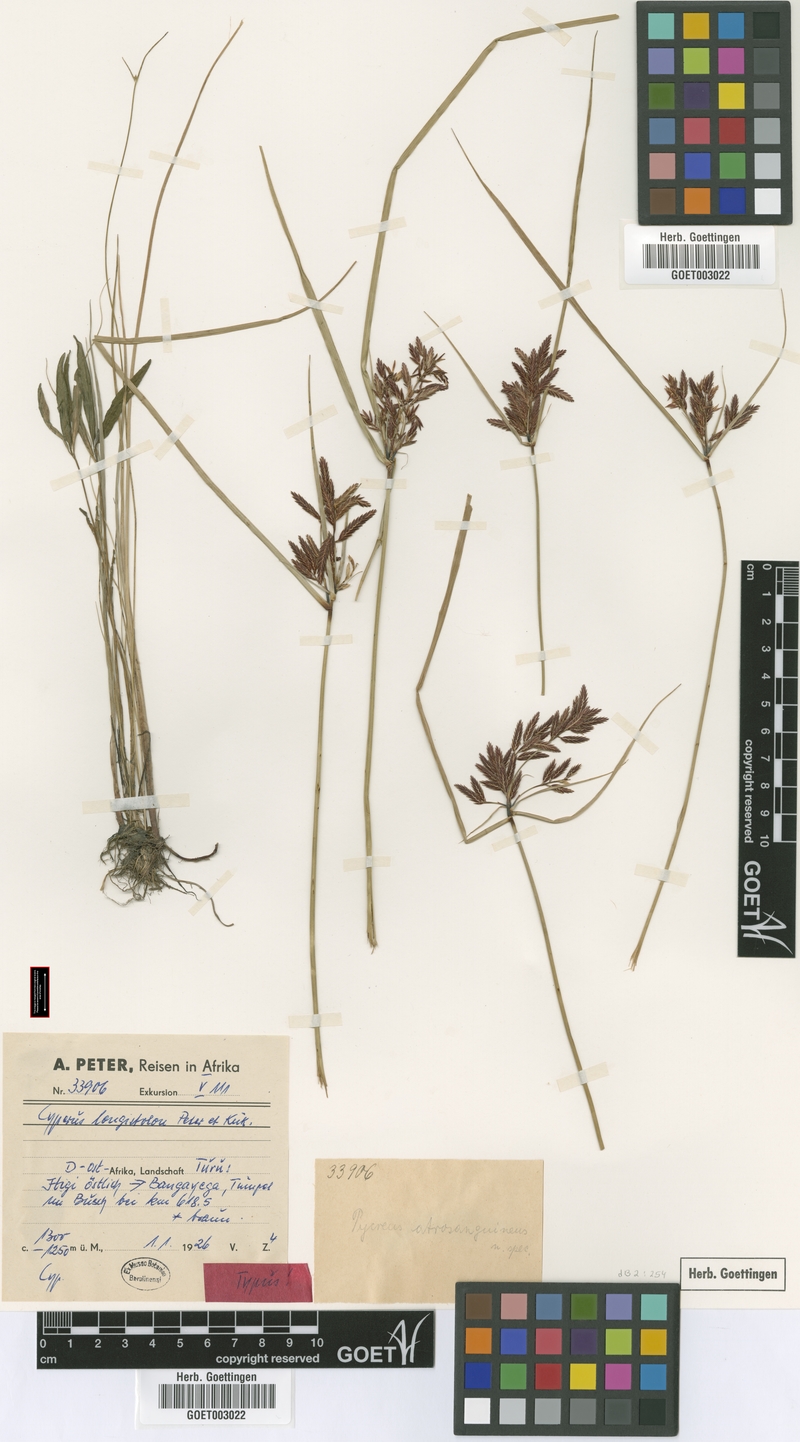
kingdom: Plantae
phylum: Tracheophyta
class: Liliopsida
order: Poales
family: Cyperaceae
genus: Cyperus
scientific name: Cyperus chrysanthus
